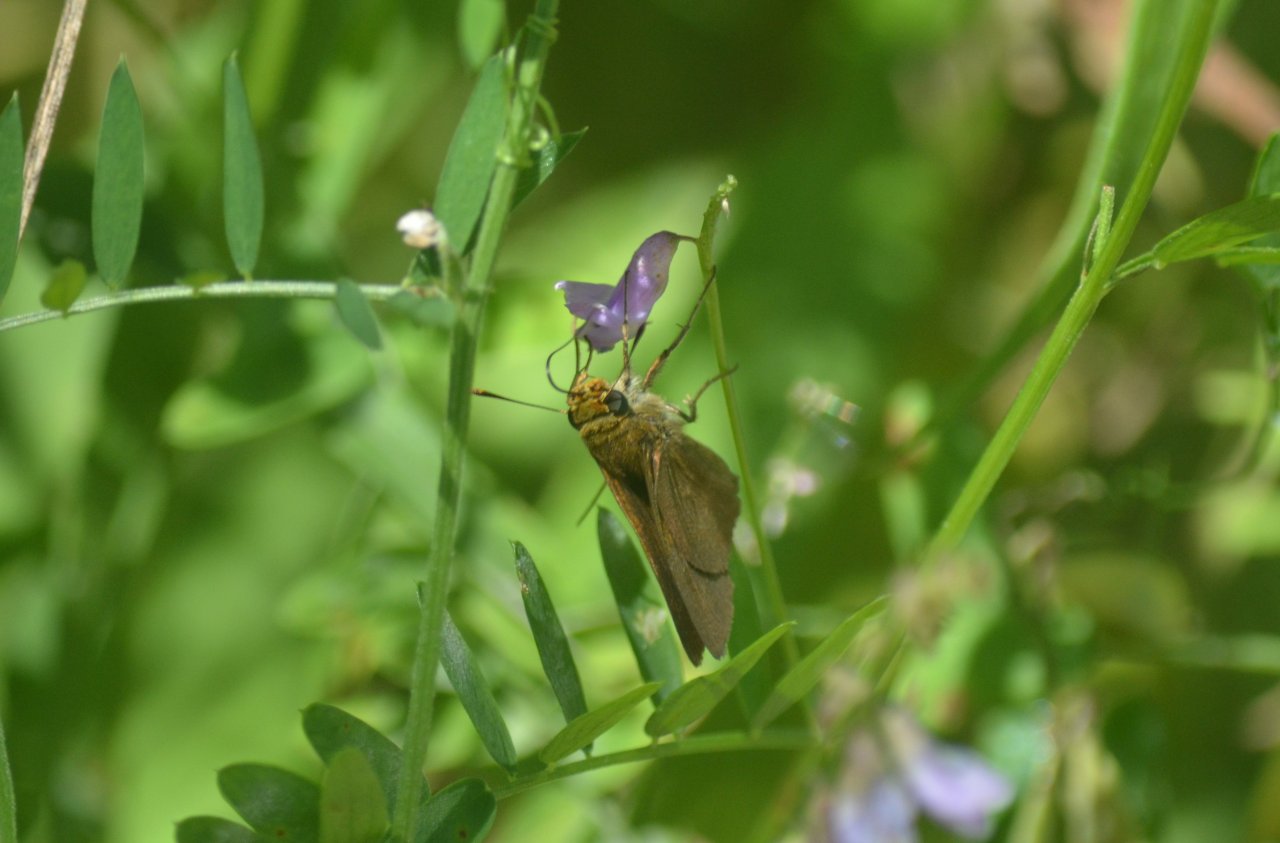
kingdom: Animalia
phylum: Arthropoda
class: Insecta
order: Lepidoptera
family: Hesperiidae
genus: Euphyes
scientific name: Euphyes vestris
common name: Dun Skipper
